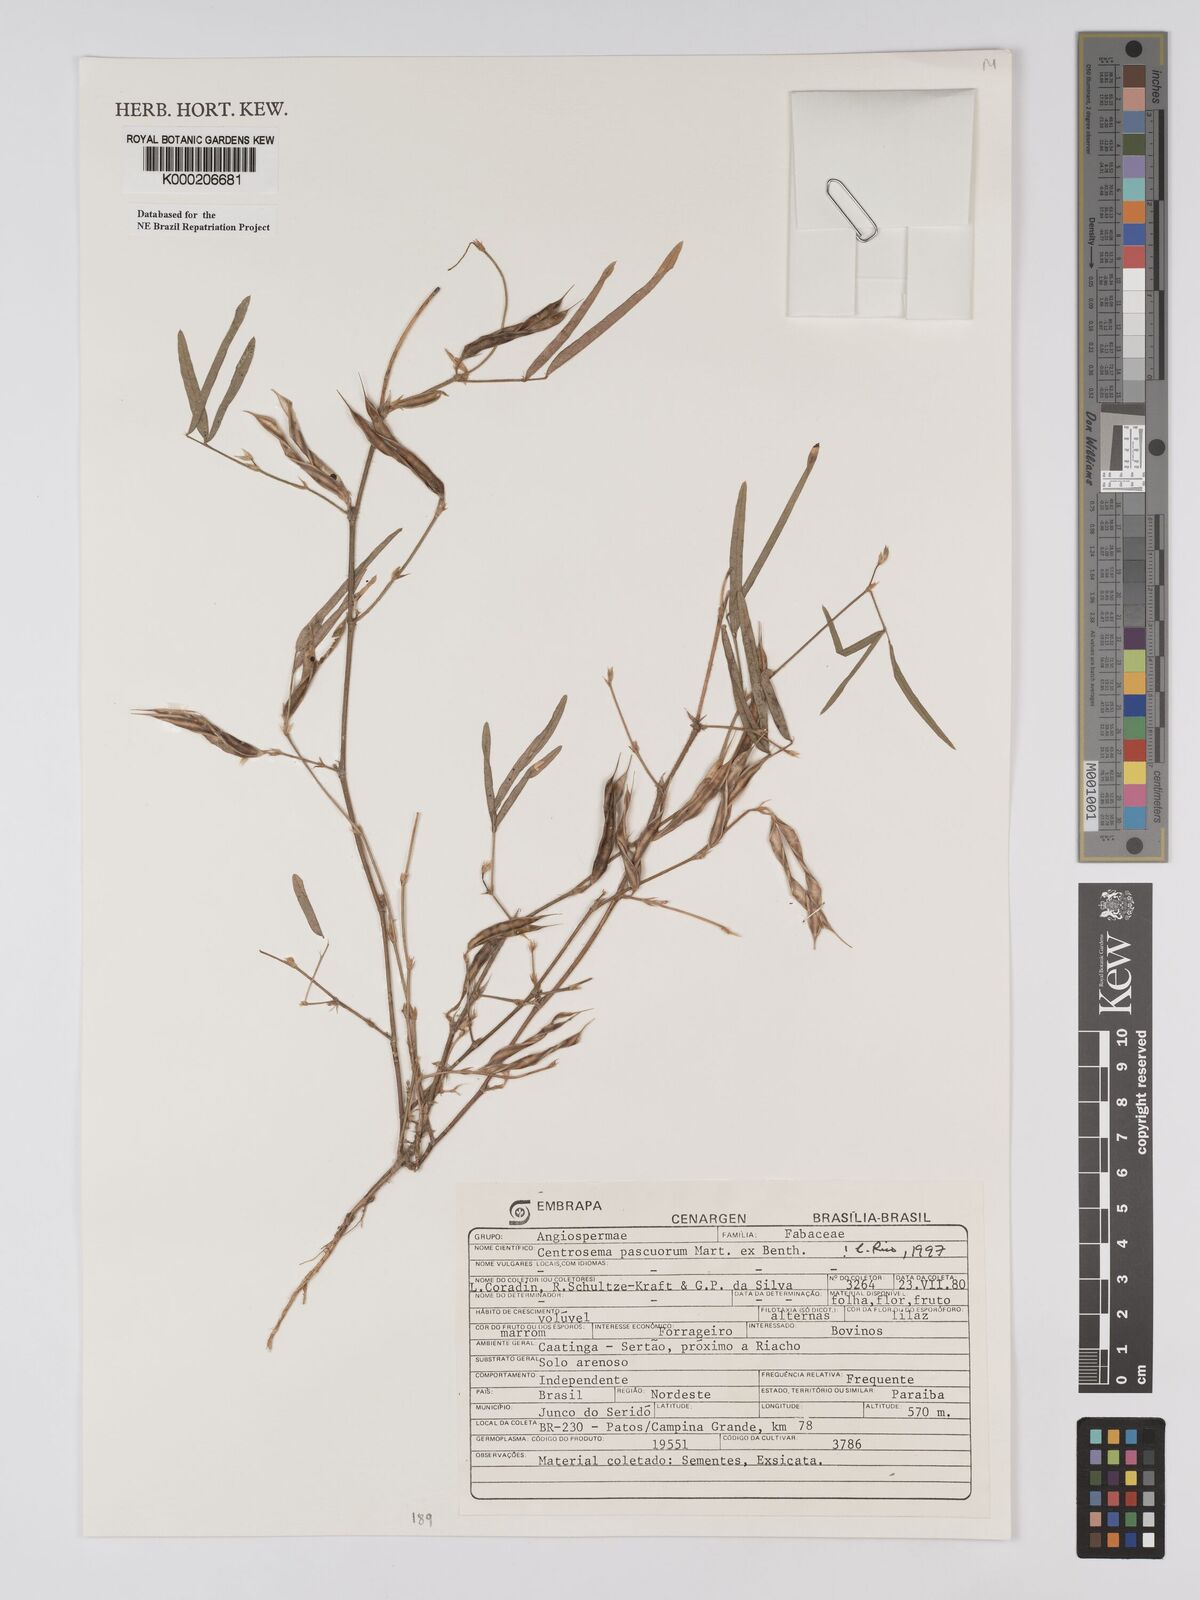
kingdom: Plantae
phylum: Tracheophyta
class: Magnoliopsida
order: Fabales
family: Fabaceae
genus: Centrosema
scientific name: Centrosema pascuorum
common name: Centurion
